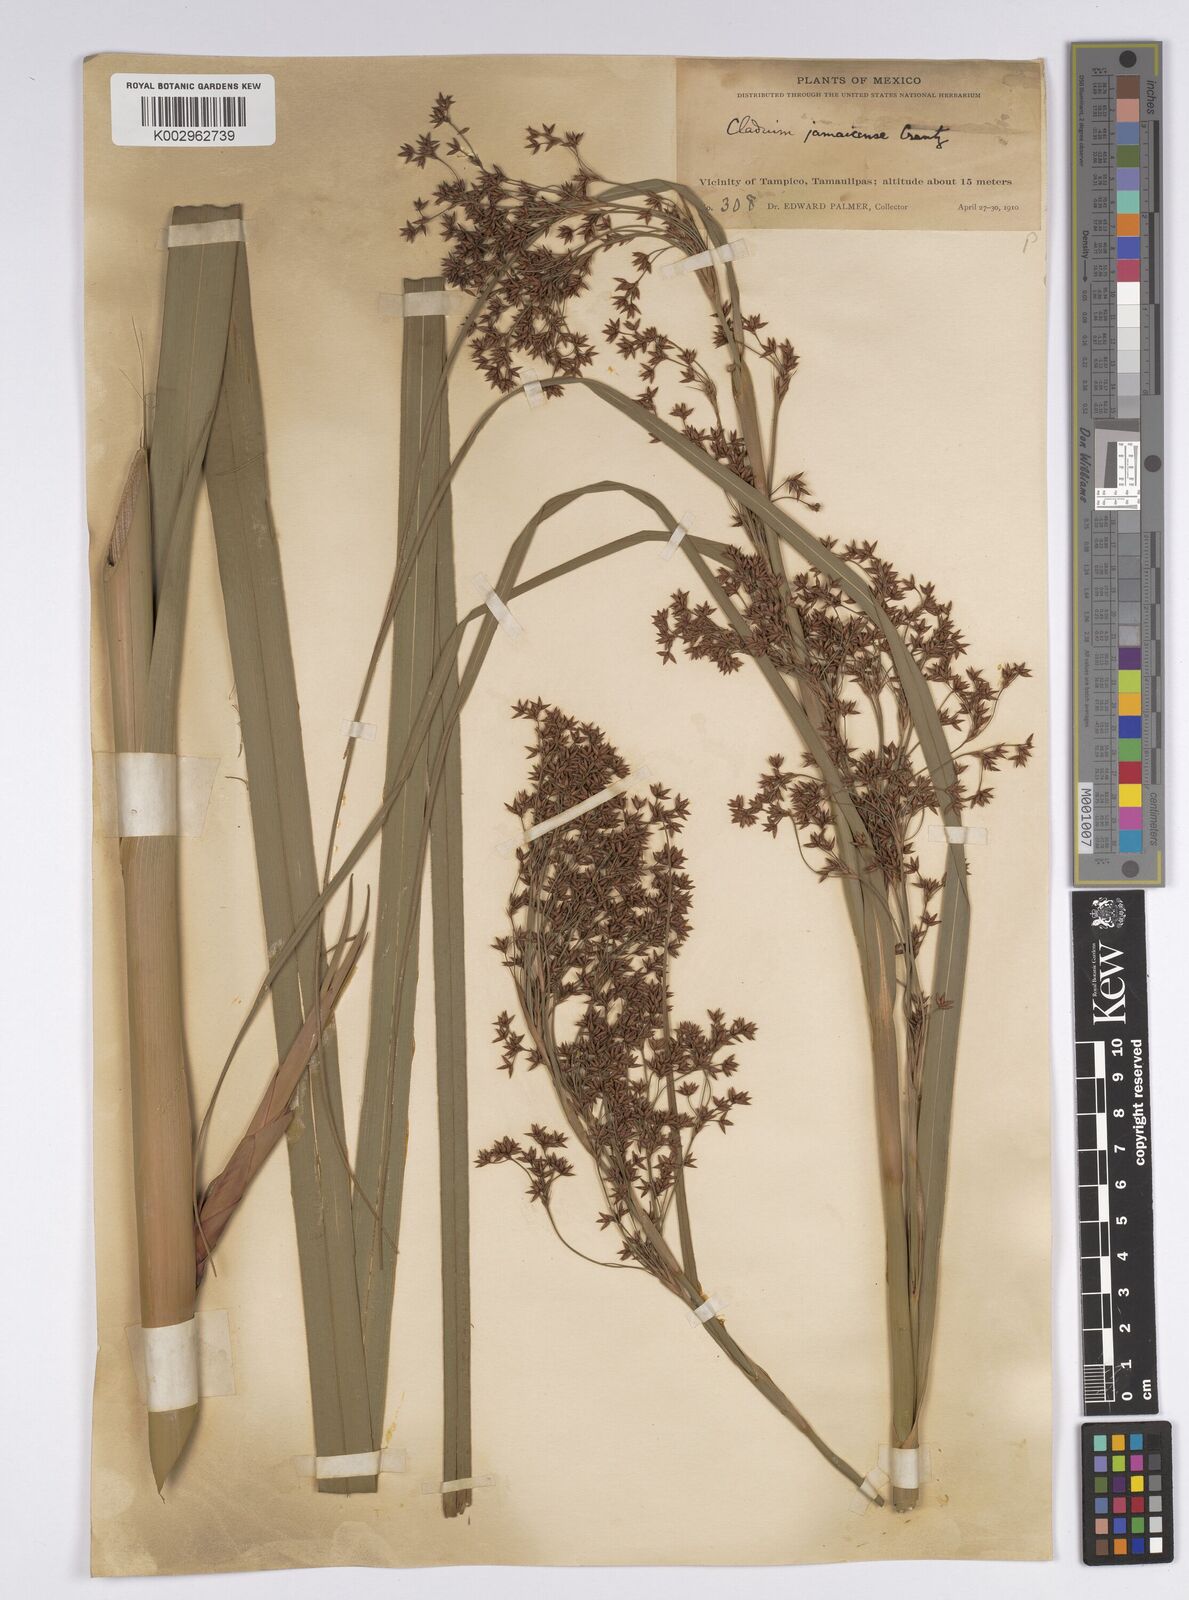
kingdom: Plantae
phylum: Tracheophyta
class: Liliopsida
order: Poales
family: Cyperaceae
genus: Cladium
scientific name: Cladium mariscus
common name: Great fen-sedge
